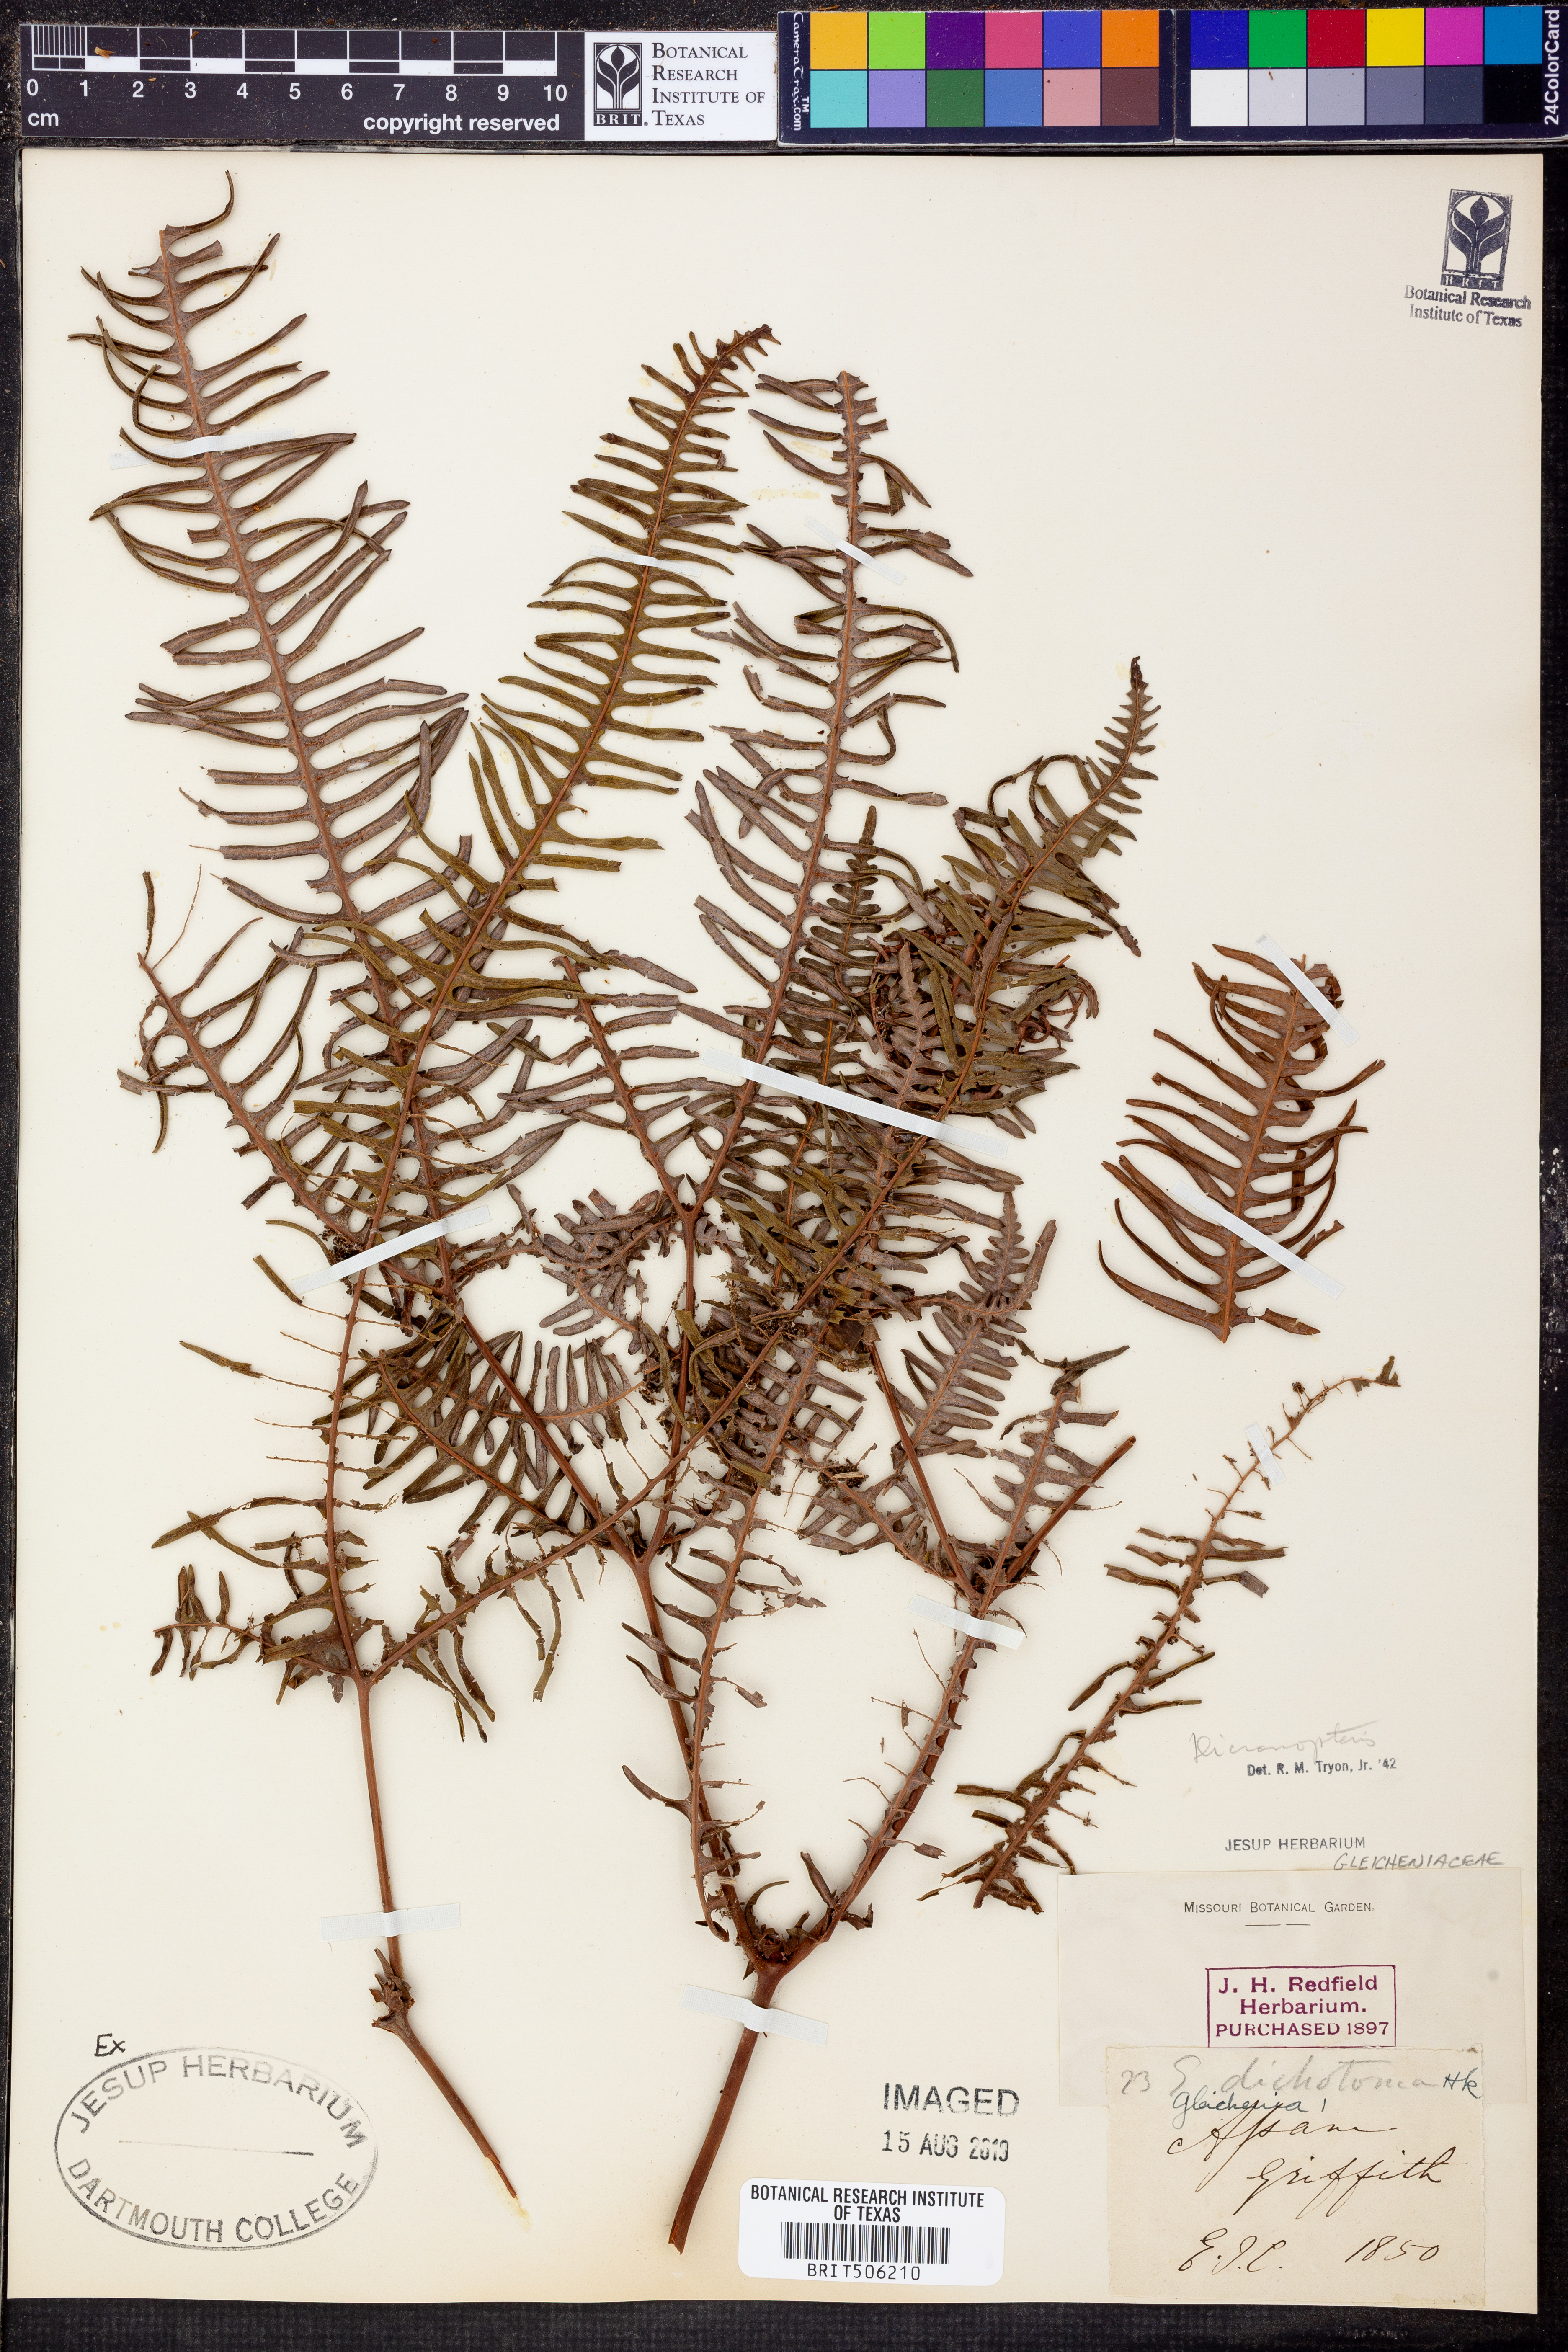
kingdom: Plantae
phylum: Tracheophyta
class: Polypodiopsida
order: Gleicheniales
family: Gleicheniaceae
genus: Dicranopteris
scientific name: Dicranopteris dichotoma
